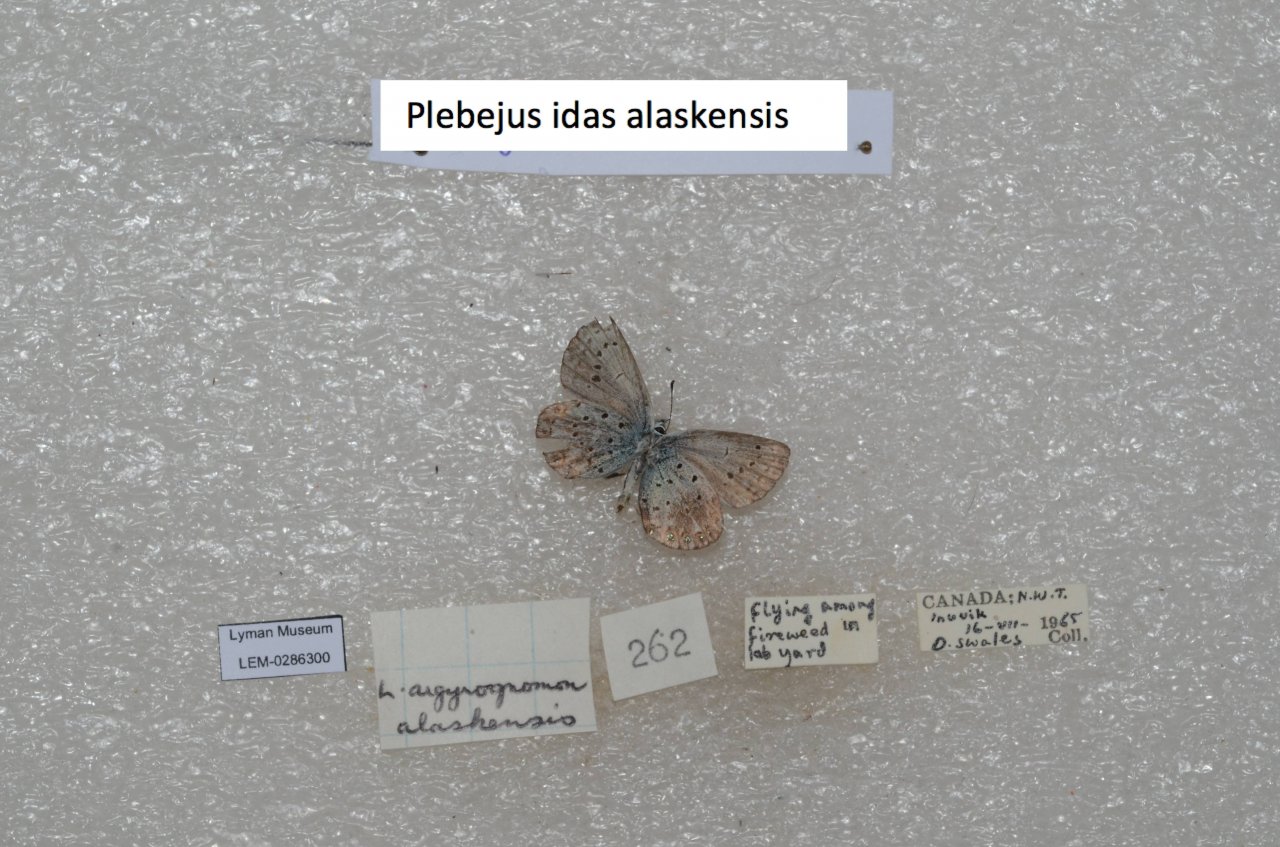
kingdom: Animalia
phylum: Arthropoda
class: Insecta
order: Lepidoptera
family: Lycaenidae
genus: Lycaeides
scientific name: Lycaeides idas
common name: Northern Blue
